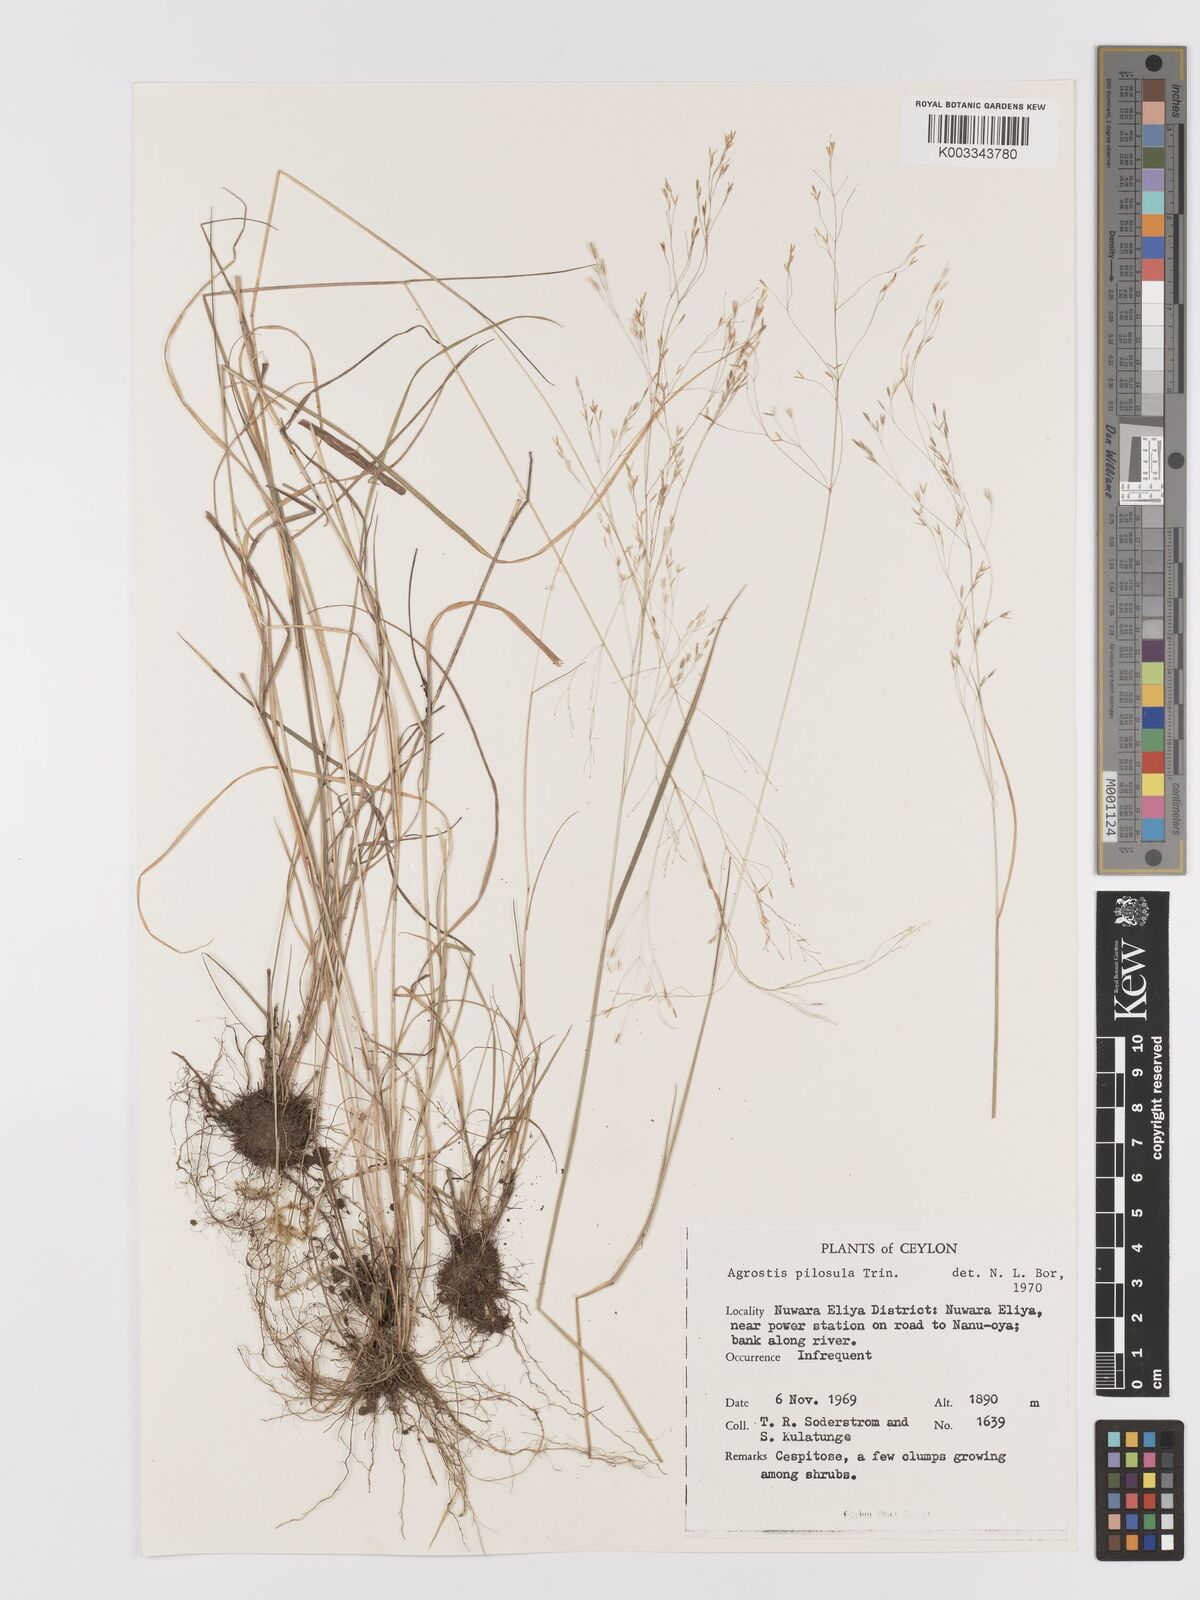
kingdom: Plantae
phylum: Tracheophyta
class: Liliopsida
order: Poales
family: Poaceae
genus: Agrostis
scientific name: Agrostis pilosula
